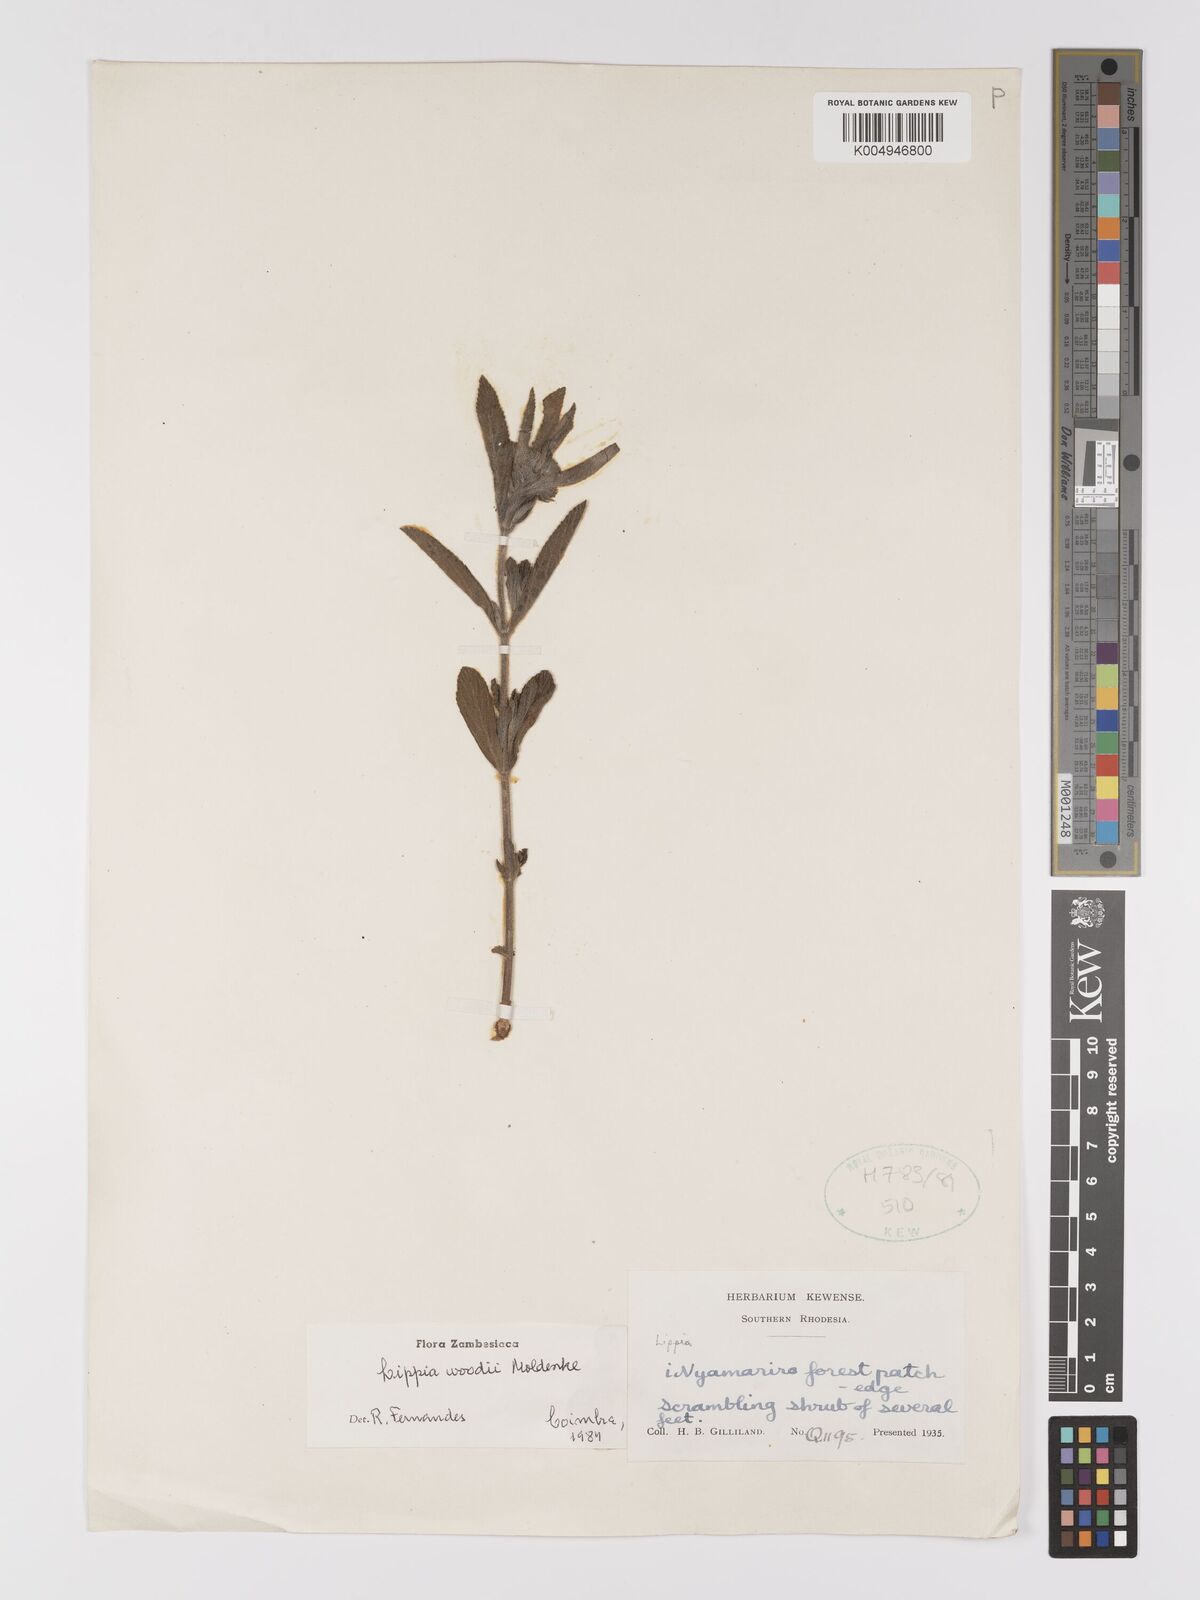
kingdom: Plantae
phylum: Tracheophyta
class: Magnoliopsida
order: Lamiales
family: Verbenaceae
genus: Lippia
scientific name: Lippia woodii
